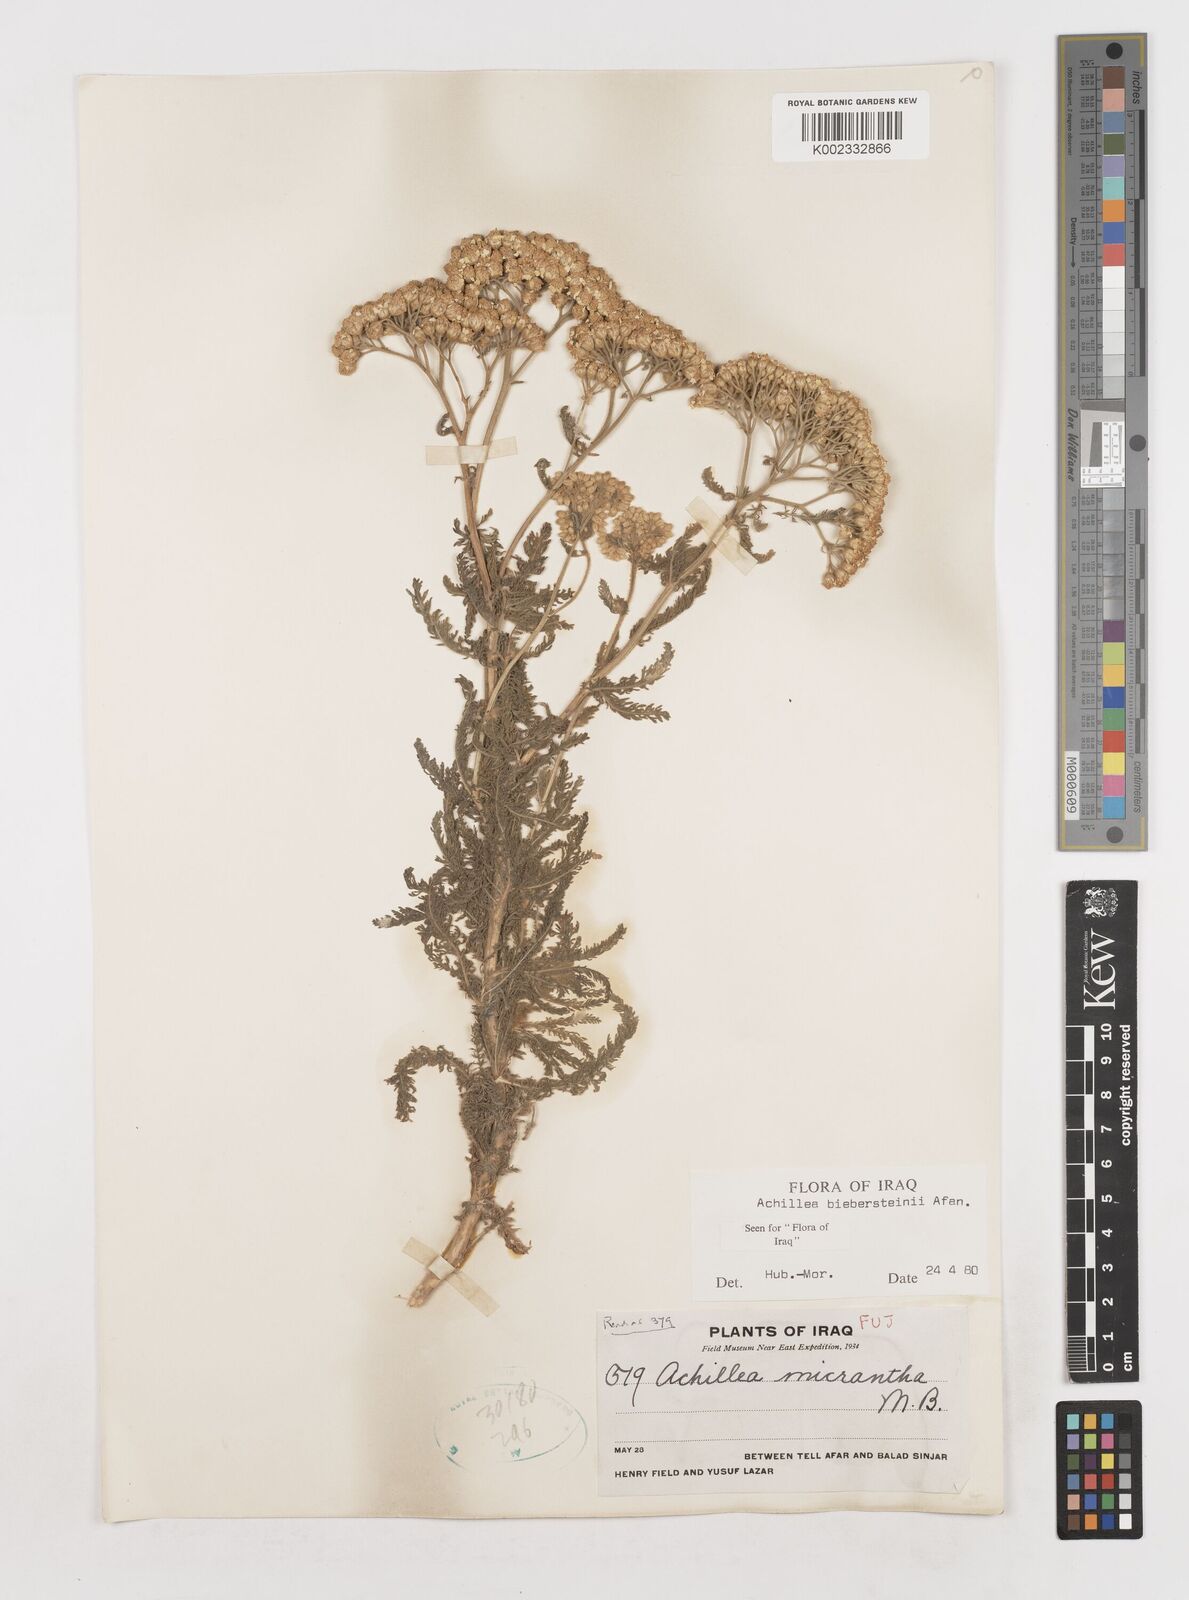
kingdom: Plantae
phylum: Tracheophyta
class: Magnoliopsida
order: Asterales
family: Asteraceae
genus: Achillea
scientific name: Achillea arabica
